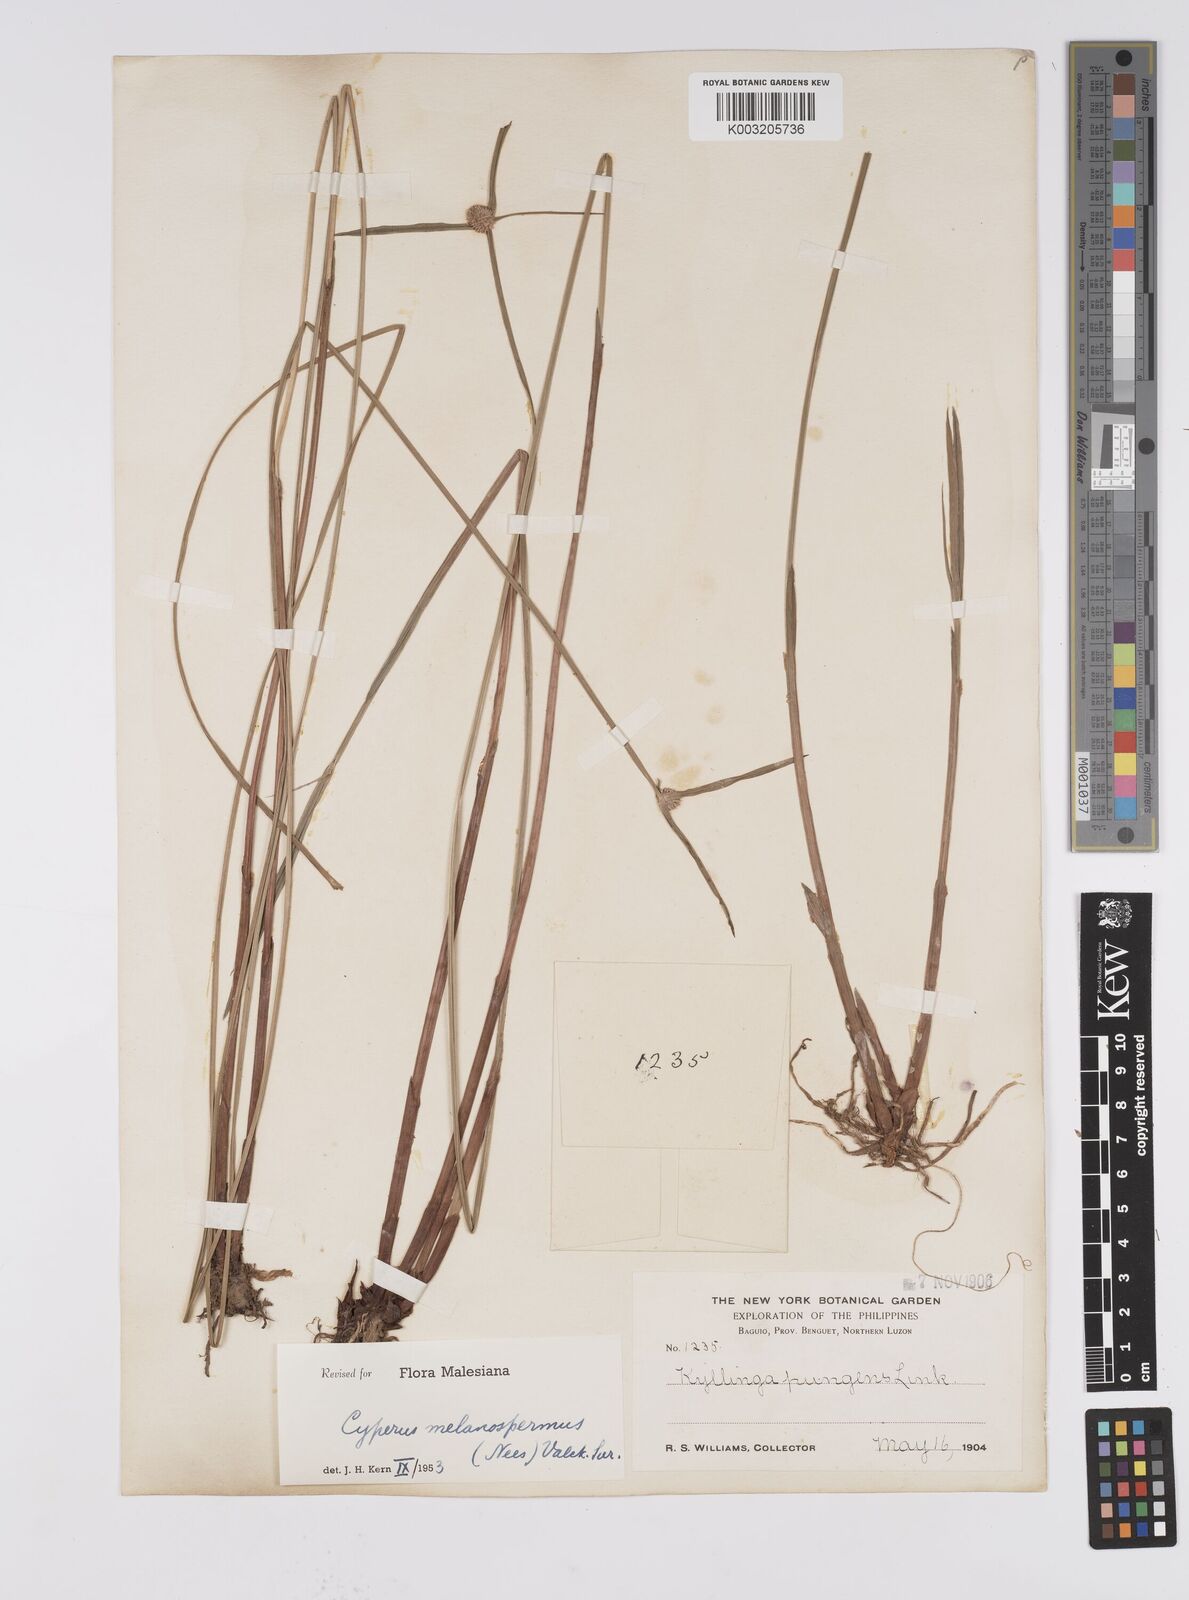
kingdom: Plantae
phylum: Tracheophyta
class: Liliopsida
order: Poales
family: Cyperaceae
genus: Cyperus
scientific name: Cyperus melanospermus
